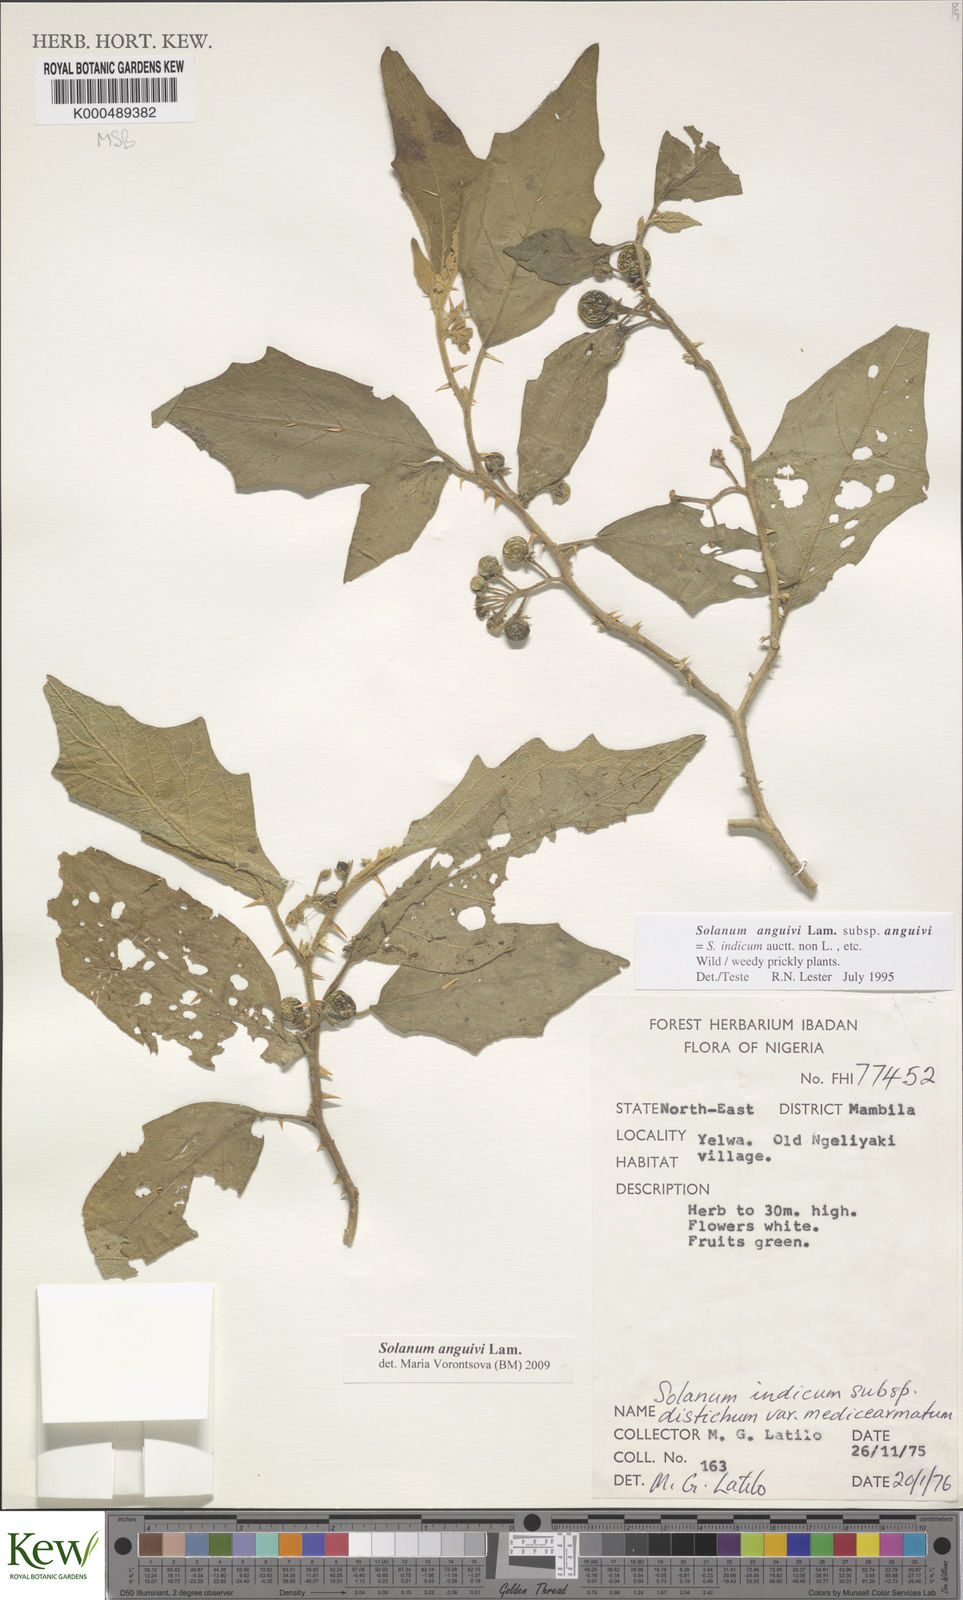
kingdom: Plantae
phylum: Tracheophyta
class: Magnoliopsida
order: Solanales
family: Solanaceae
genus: Solanum
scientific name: Solanum anguivi
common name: Forest bitterberry
